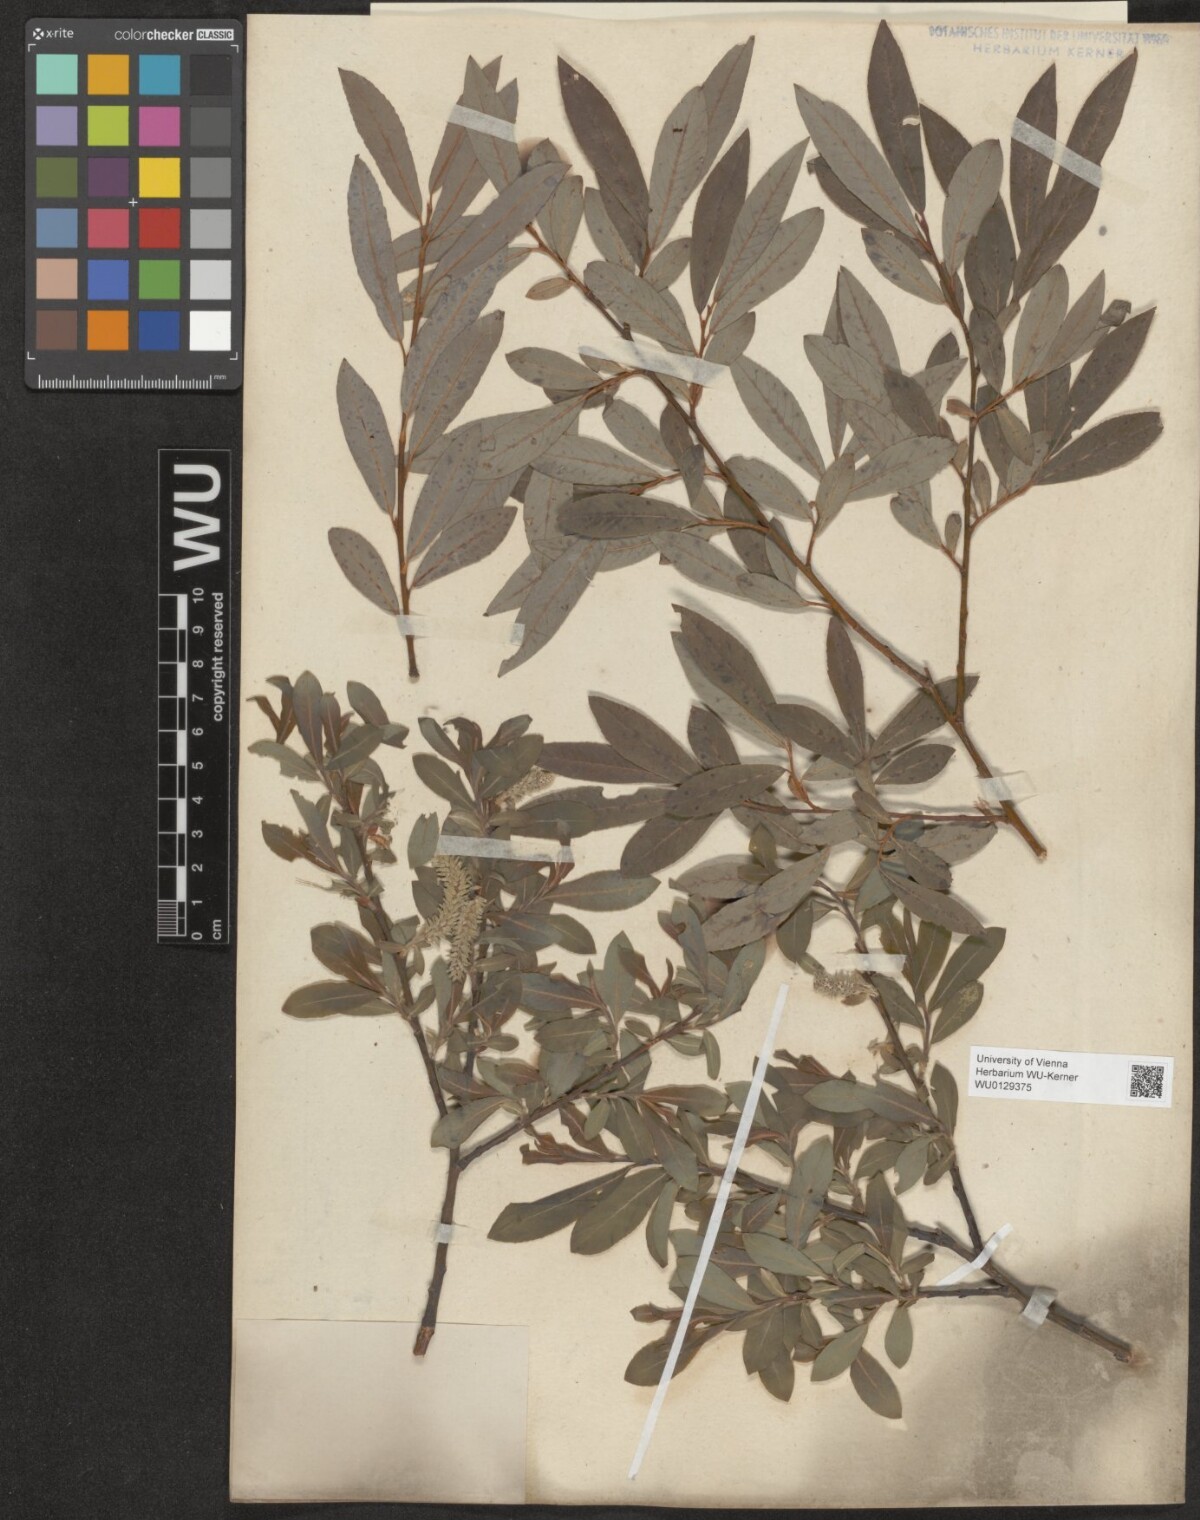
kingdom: Plantae
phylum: Tracheophyta
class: Magnoliopsida
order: Malpighiales
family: Salicaceae
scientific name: Salicaceae
